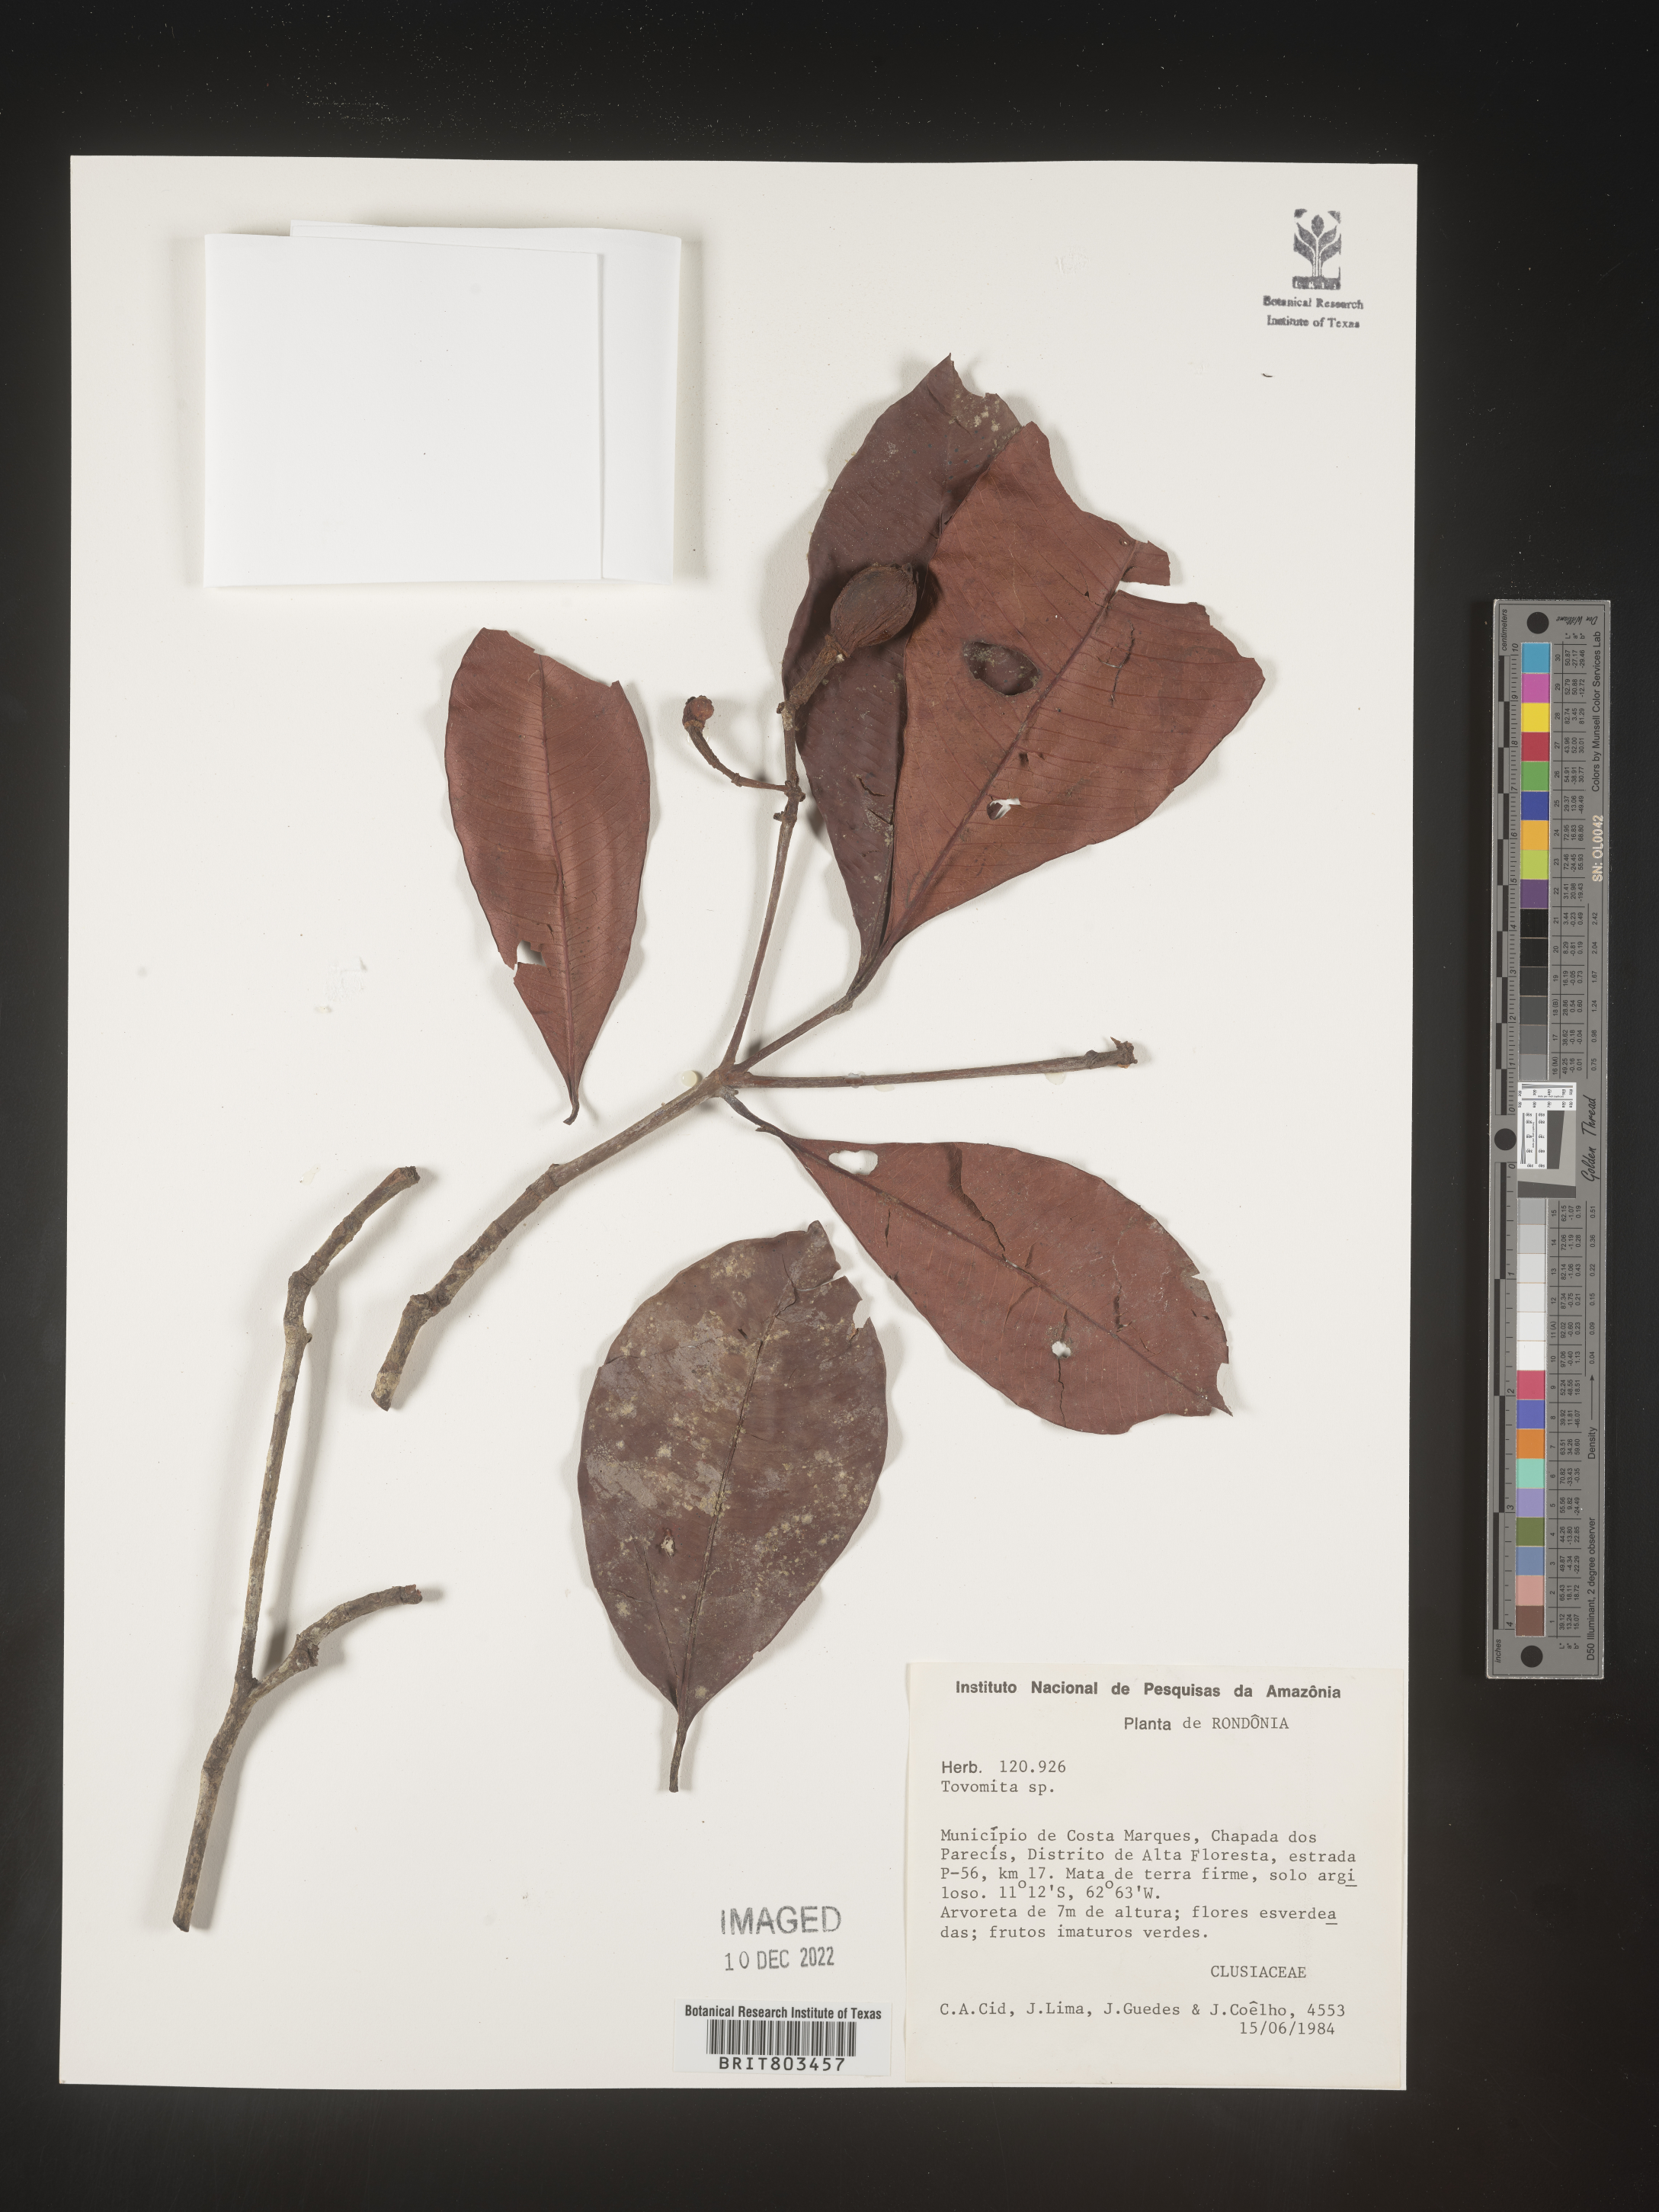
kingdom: Plantae
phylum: Tracheophyta
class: Magnoliopsida
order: Malpighiales
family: Clusiaceae
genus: Tovomita
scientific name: Tovomita
